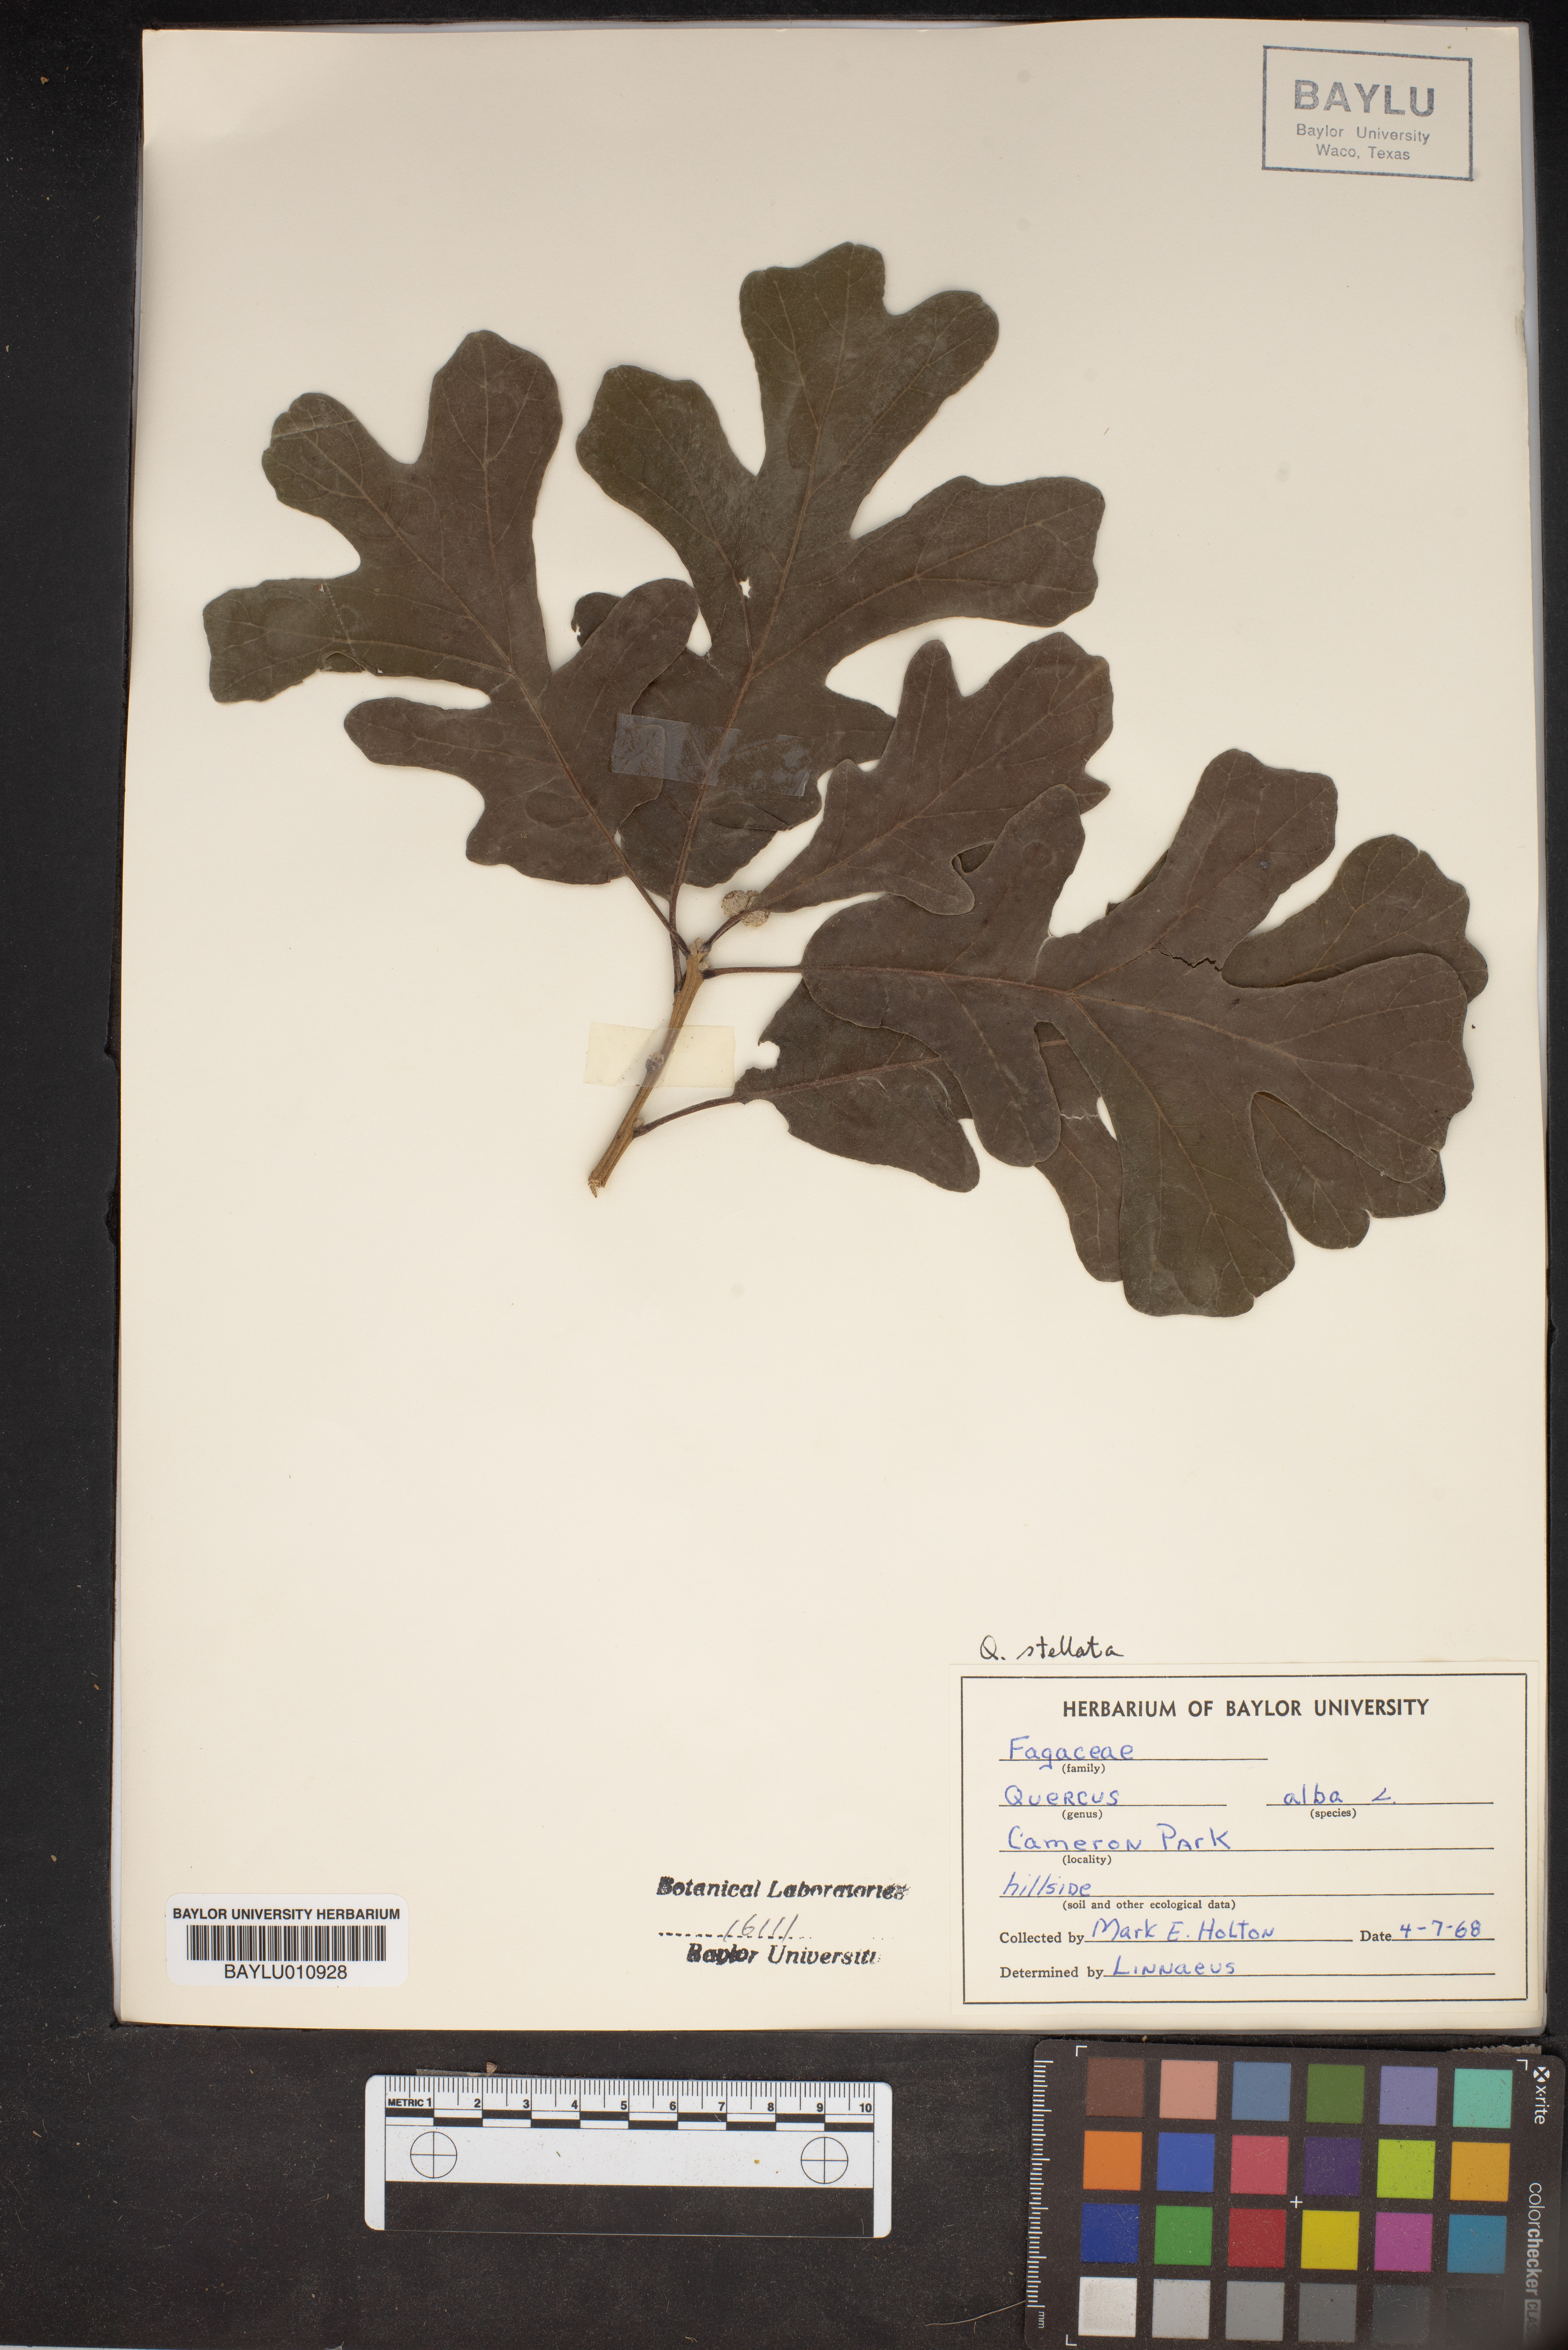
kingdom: Plantae
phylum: Tracheophyta
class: Magnoliopsida
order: Fagales
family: Fagaceae
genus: Quercus
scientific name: Quercus alba
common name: White oak
